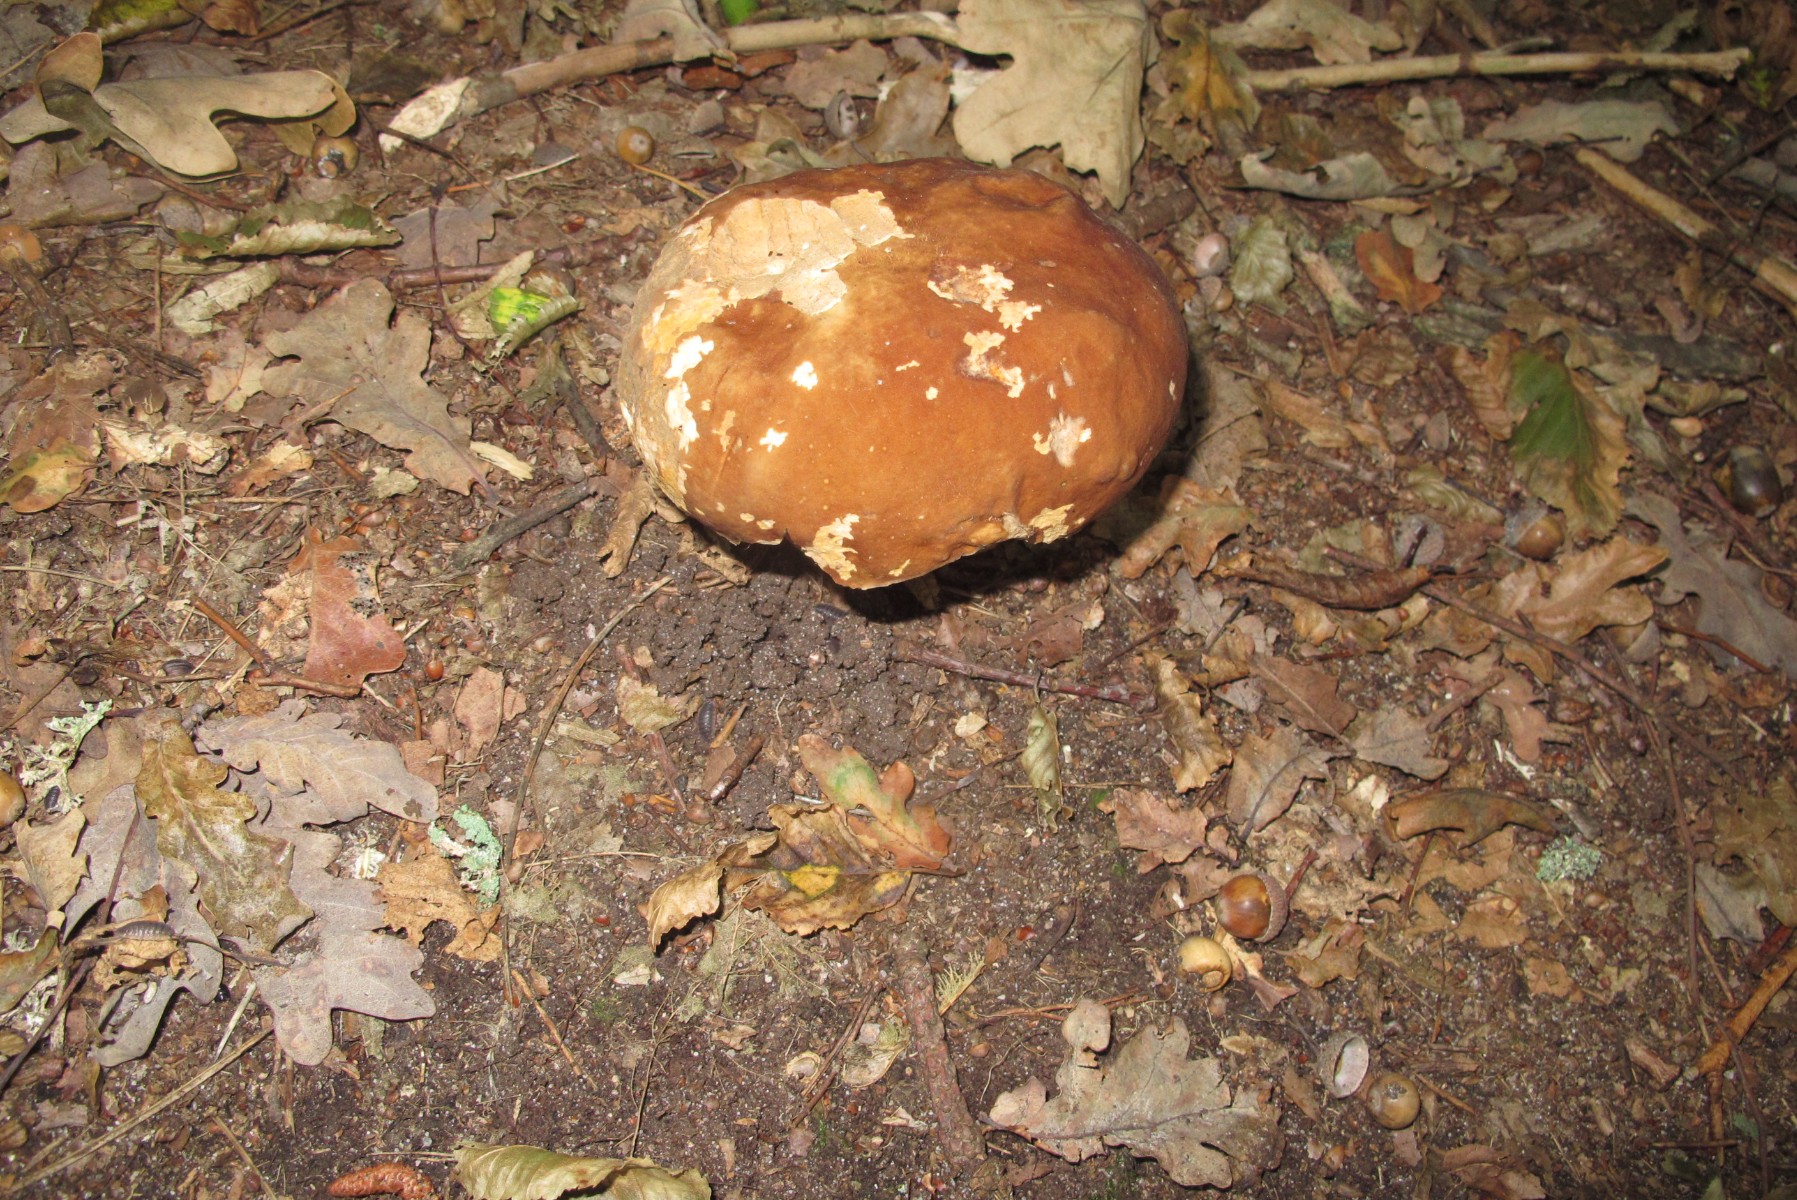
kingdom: Fungi
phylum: Basidiomycota
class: Agaricomycetes
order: Boletales
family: Boletaceae
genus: Boletus
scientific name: Boletus edulis
